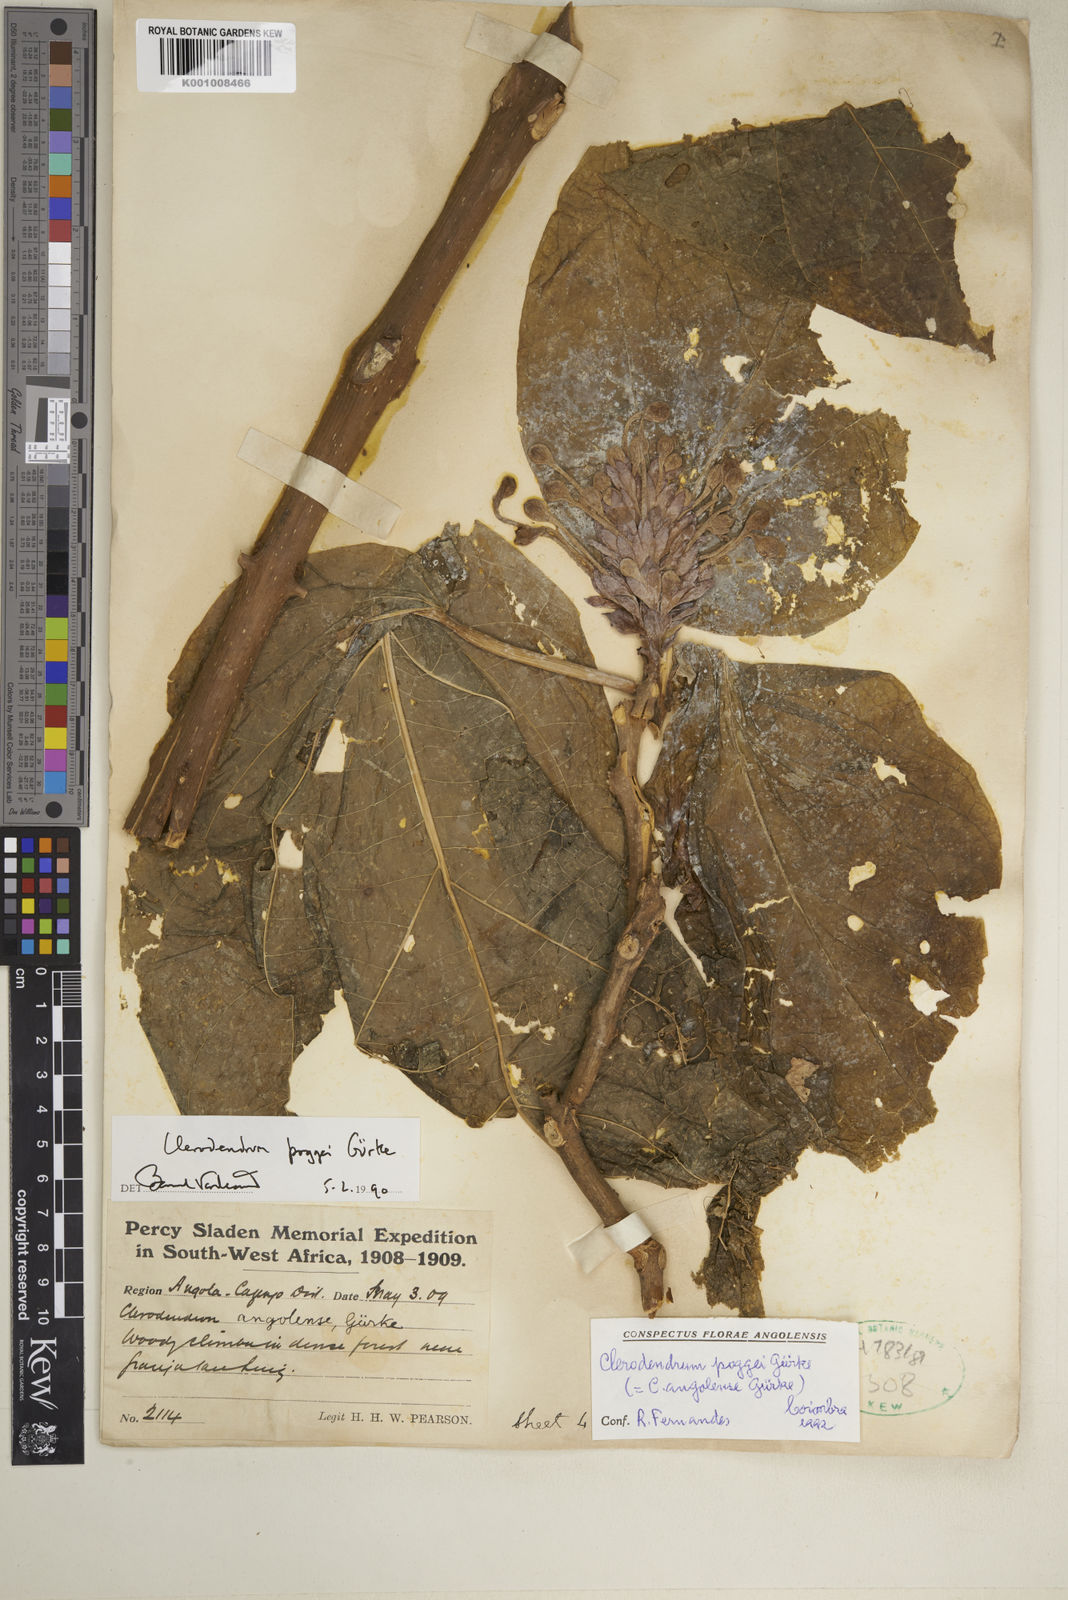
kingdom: Plantae
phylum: Tracheophyta
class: Magnoliopsida
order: Lamiales
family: Lamiaceae
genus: Clerodendrum
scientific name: Clerodendrum
